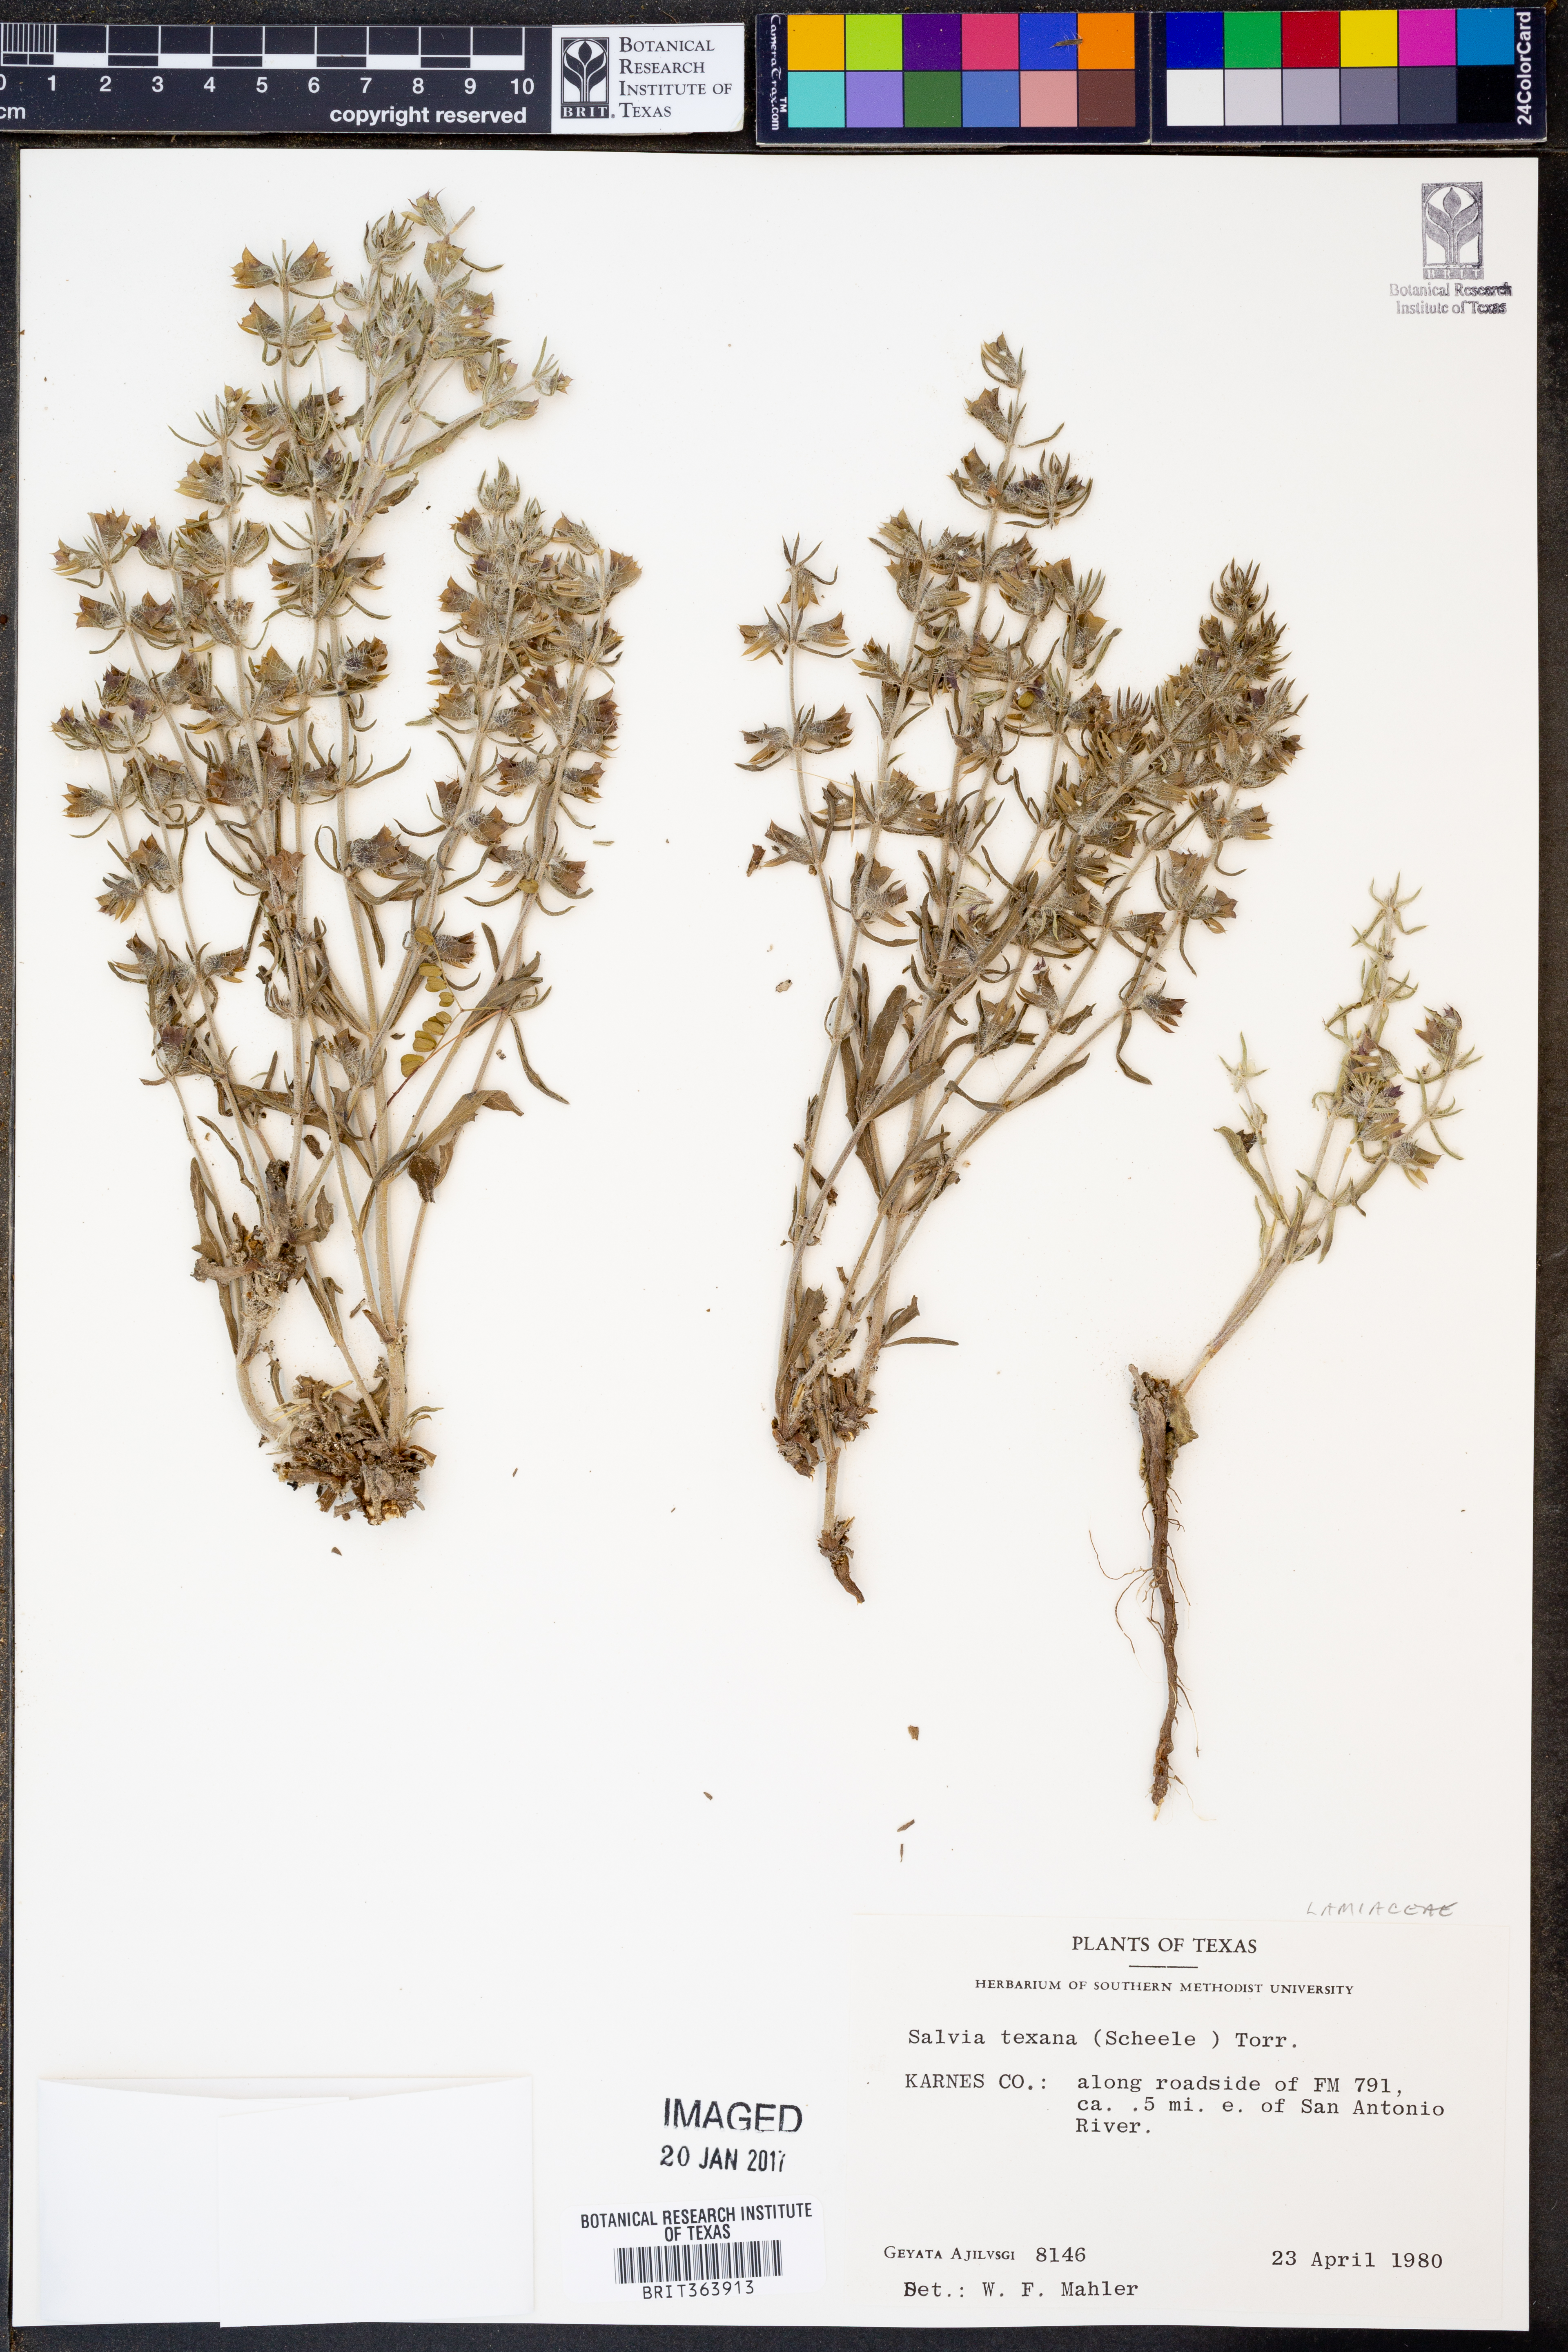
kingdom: Plantae
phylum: Tracheophyta
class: Magnoliopsida
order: Lamiales
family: Lamiaceae
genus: Salvia
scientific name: Salvia texana
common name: Texas sage
